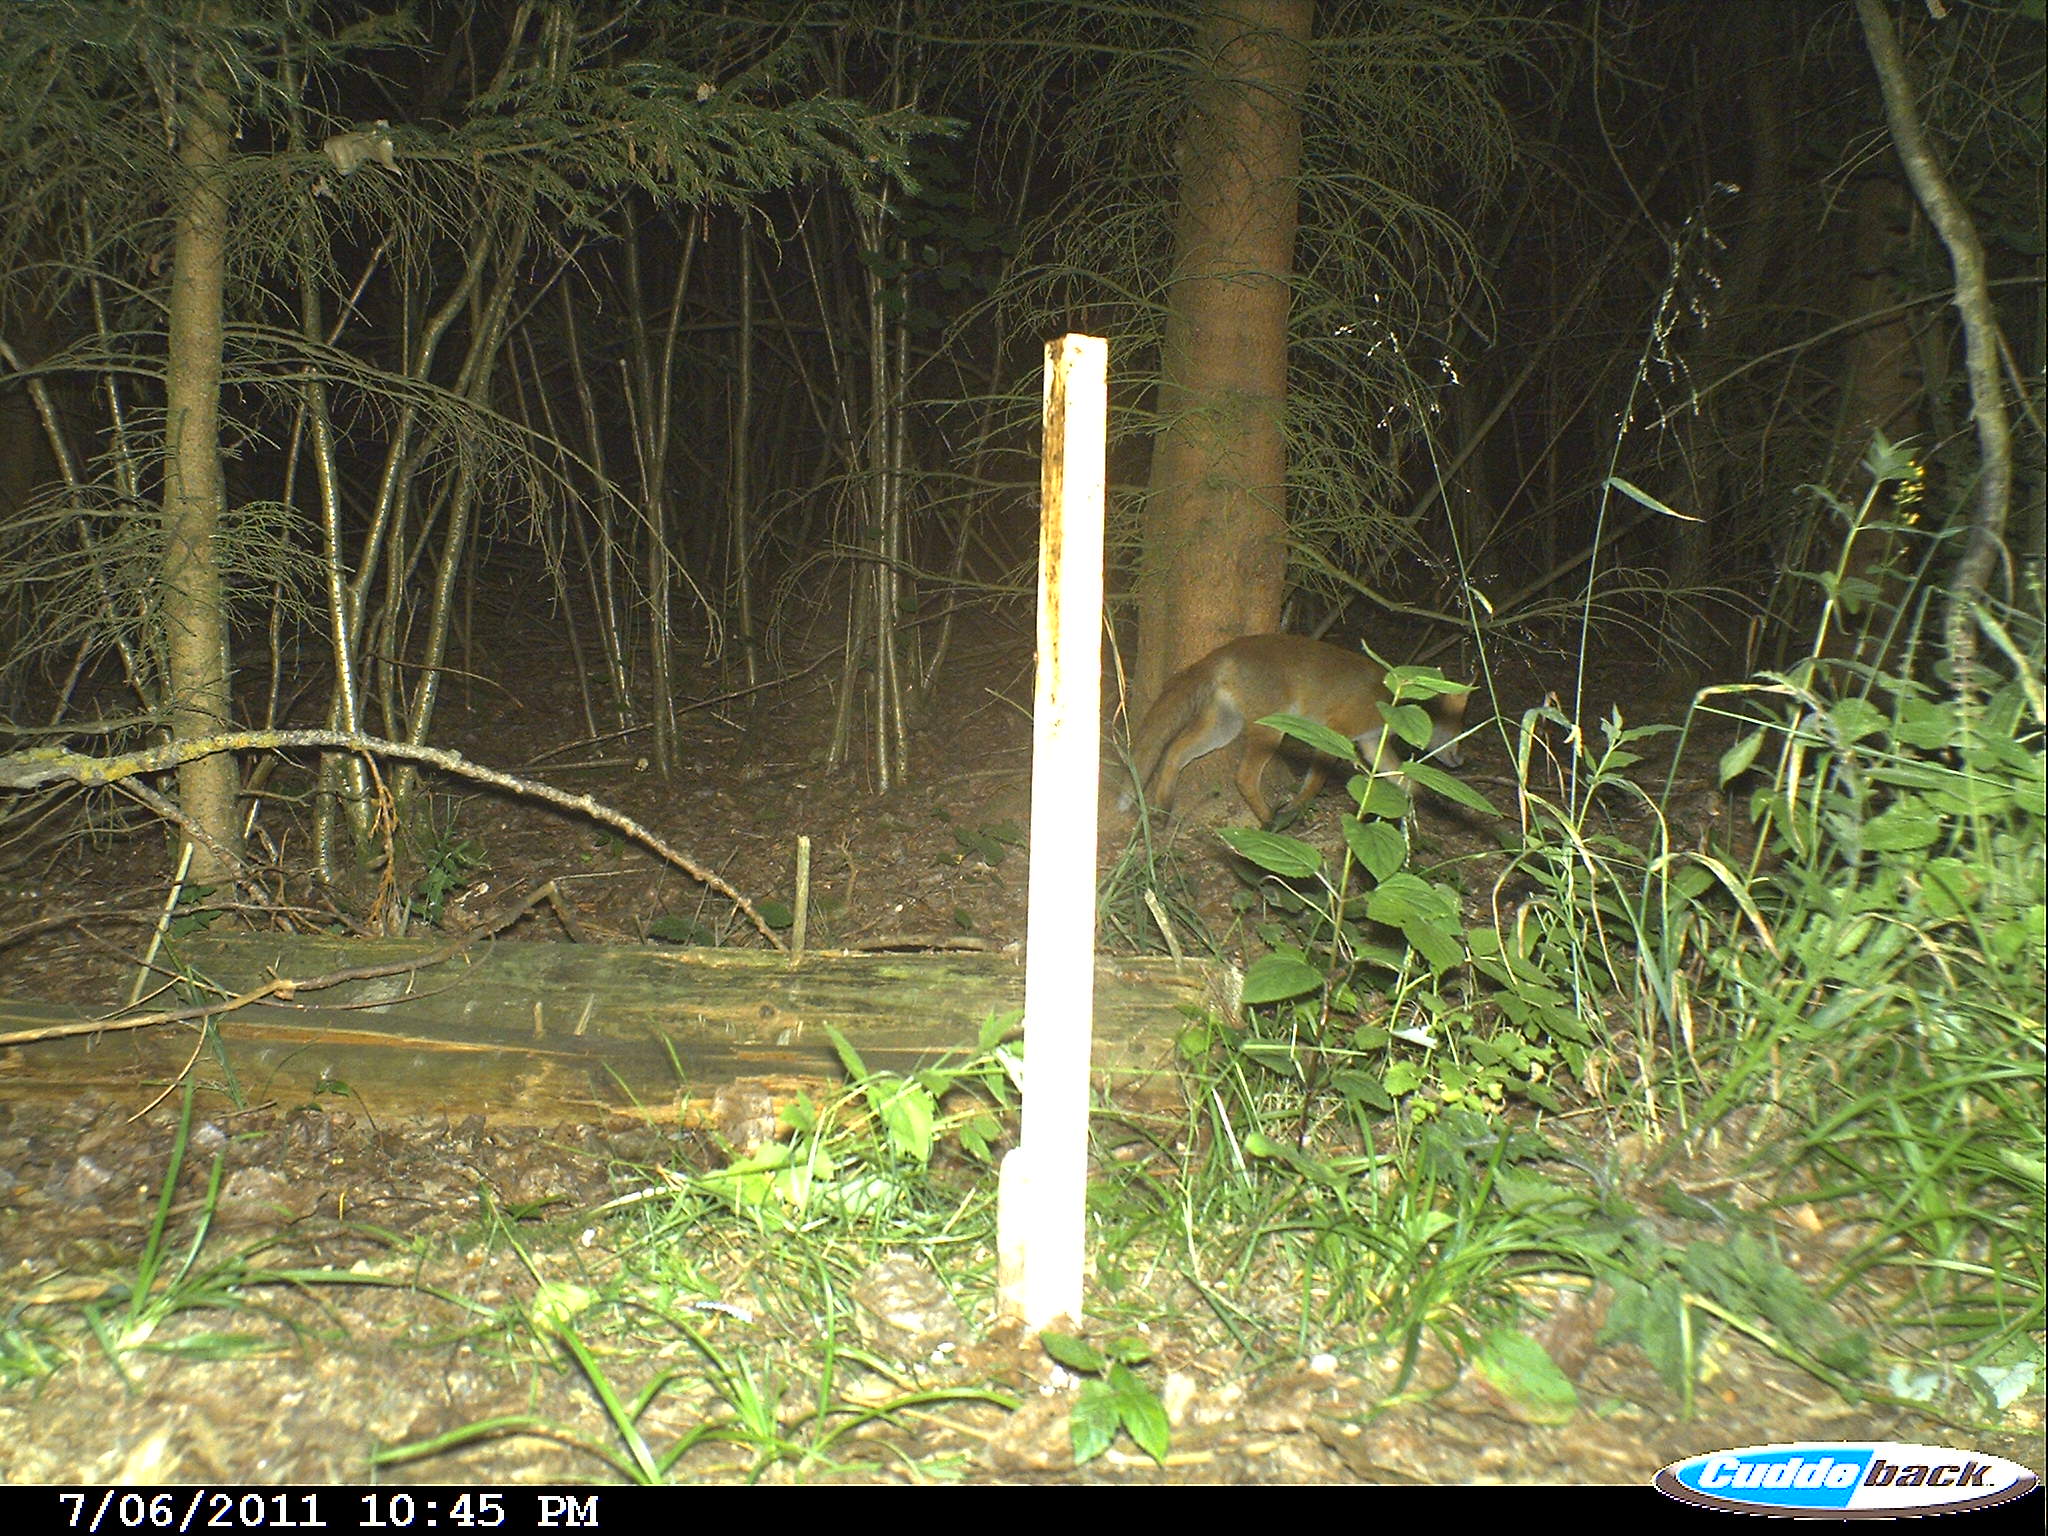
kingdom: Animalia
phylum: Chordata
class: Mammalia
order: Carnivora
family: Canidae
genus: Vulpes
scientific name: Vulpes vulpes
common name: Red fox
